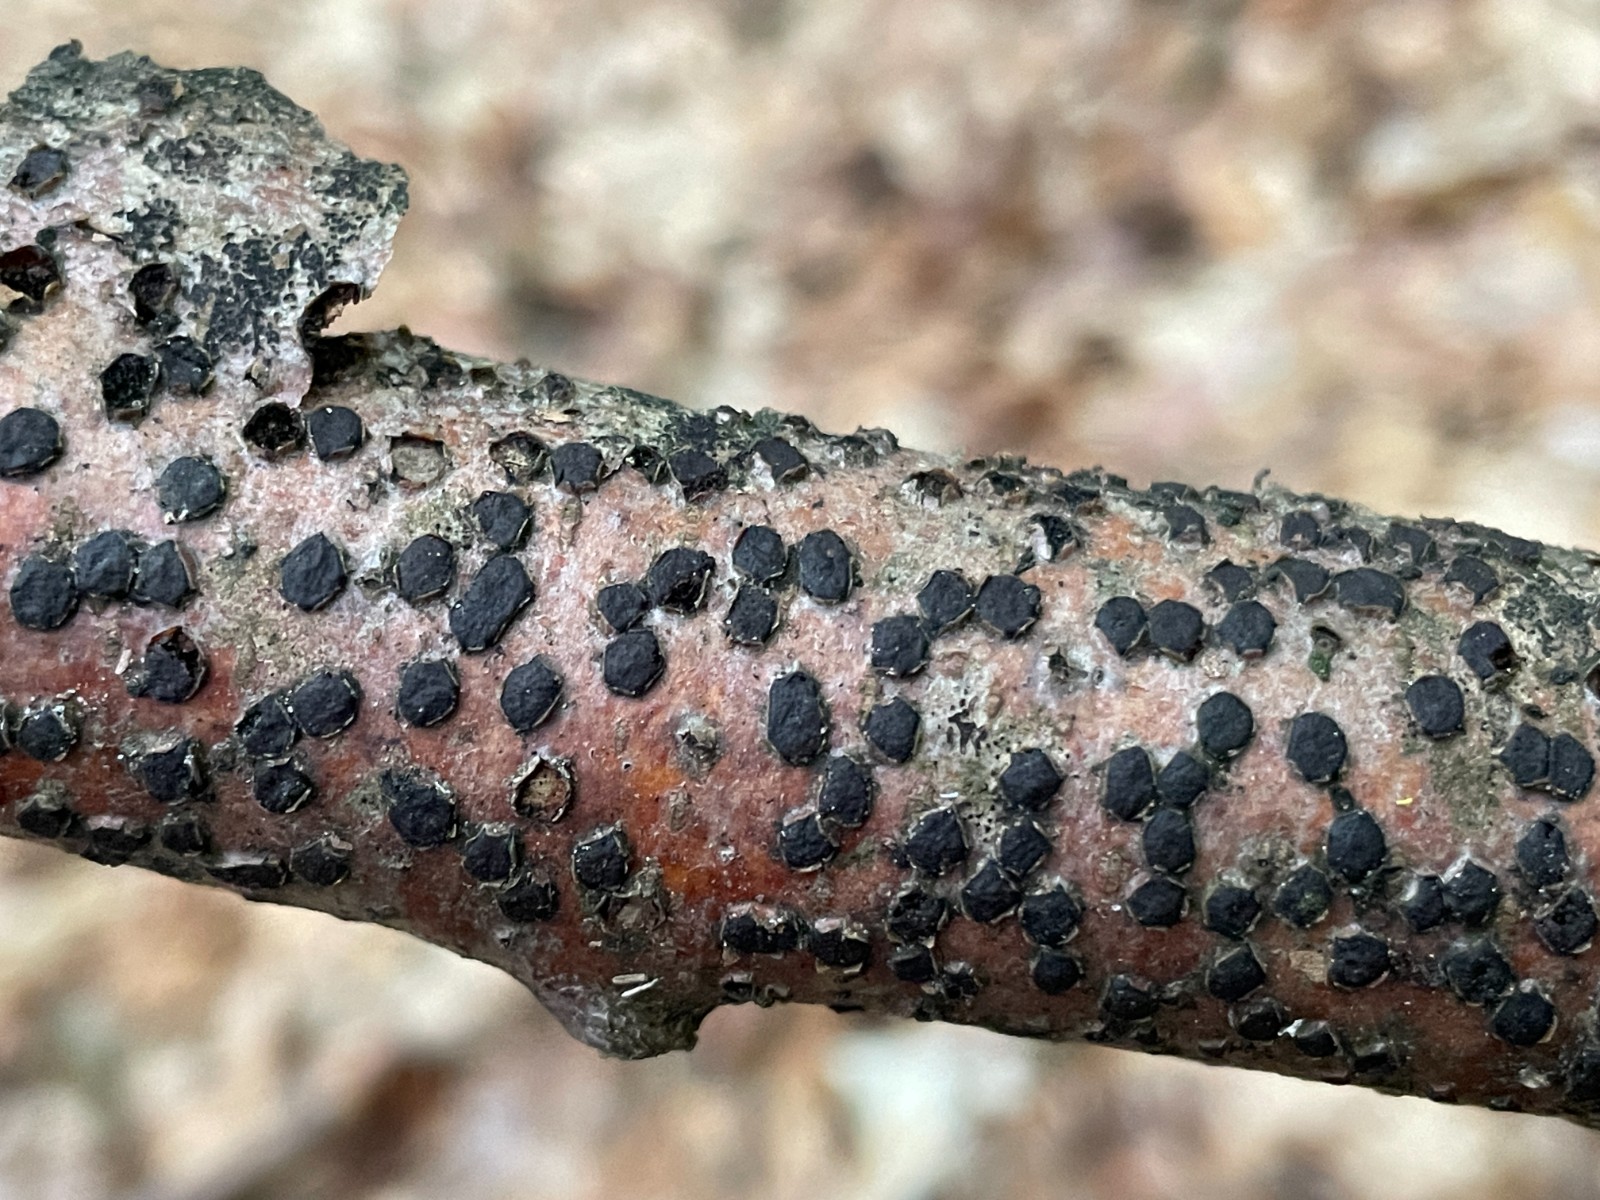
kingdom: Fungi
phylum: Ascomycota
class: Sordariomycetes
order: Xylariales
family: Diatrypaceae
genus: Diatrype
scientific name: Diatrype disciformis
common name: kant-kulskorpe
